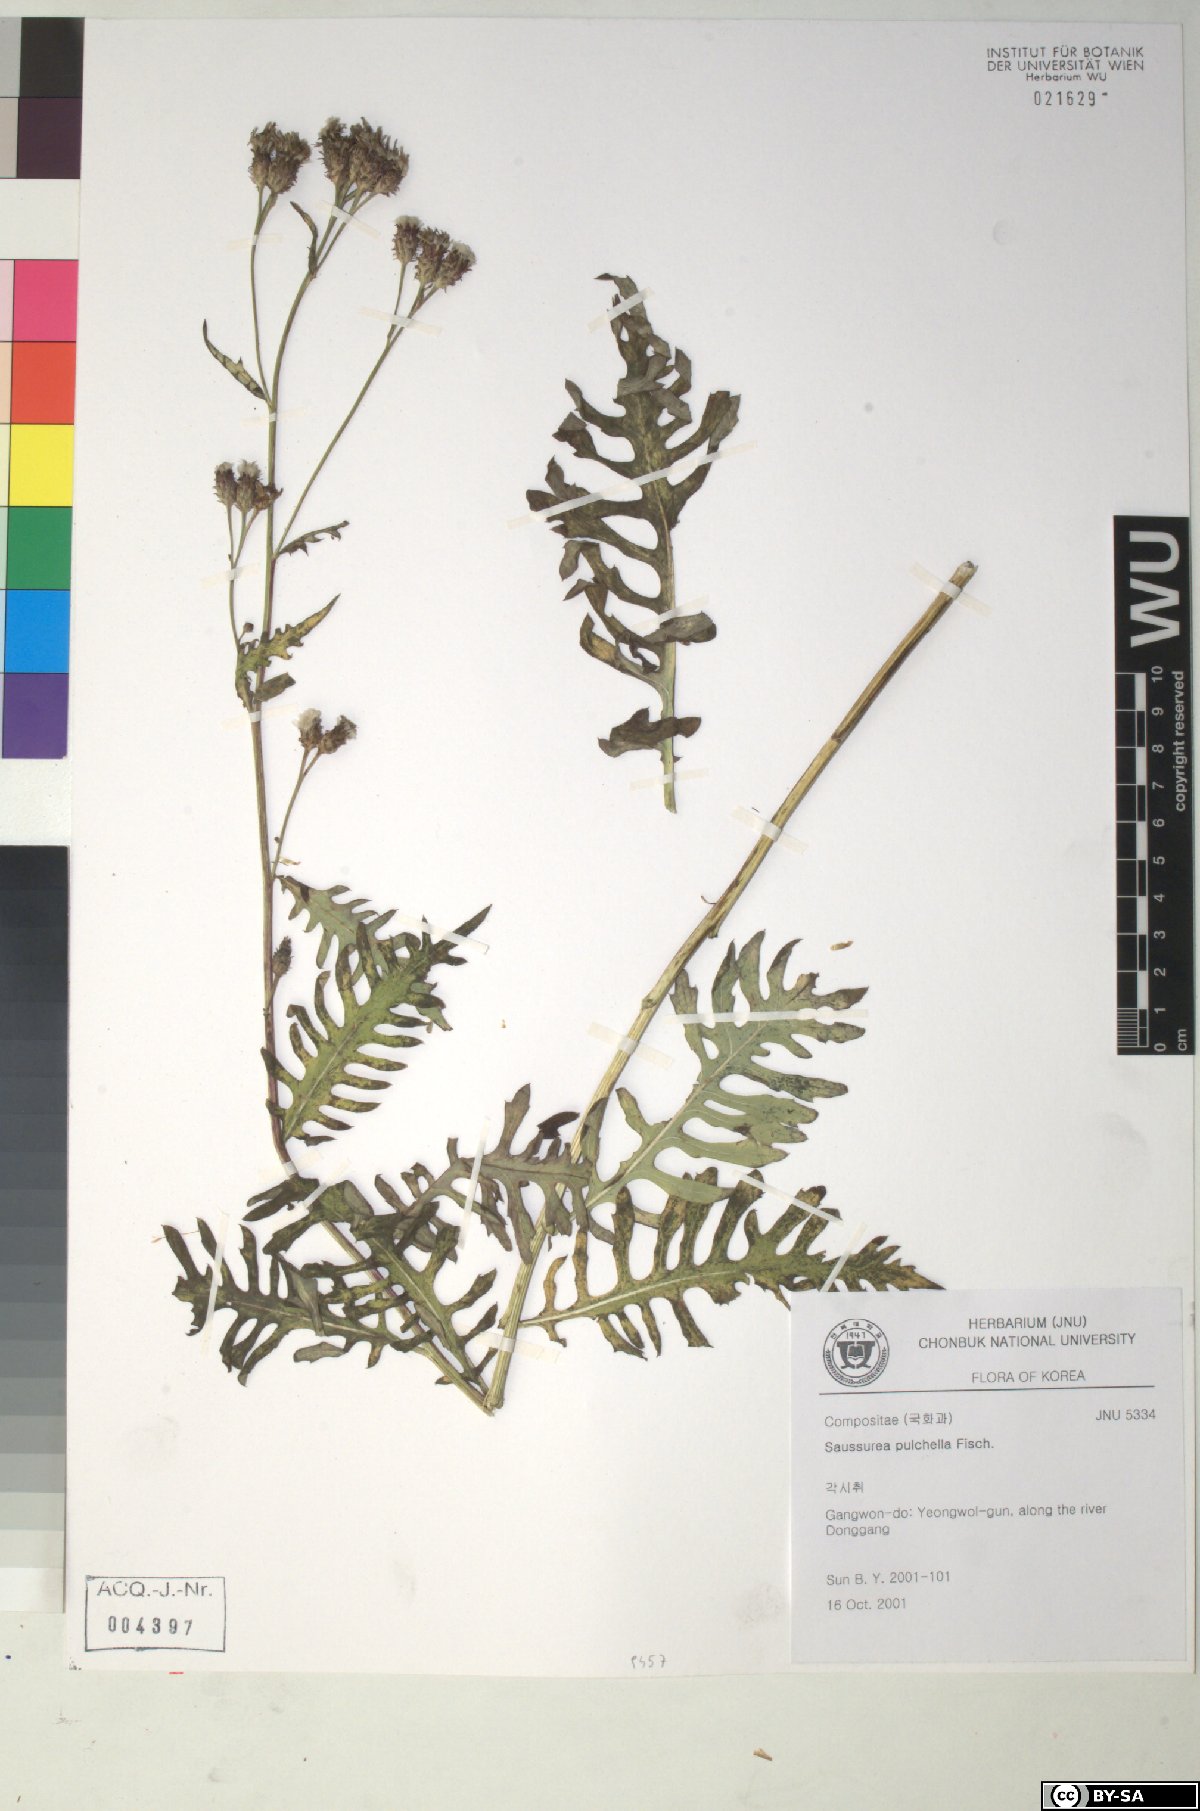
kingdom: Plantae
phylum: Tracheophyta
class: Magnoliopsida
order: Asterales
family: Asteraceae
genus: Saussurea
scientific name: Saussurea pulchella
